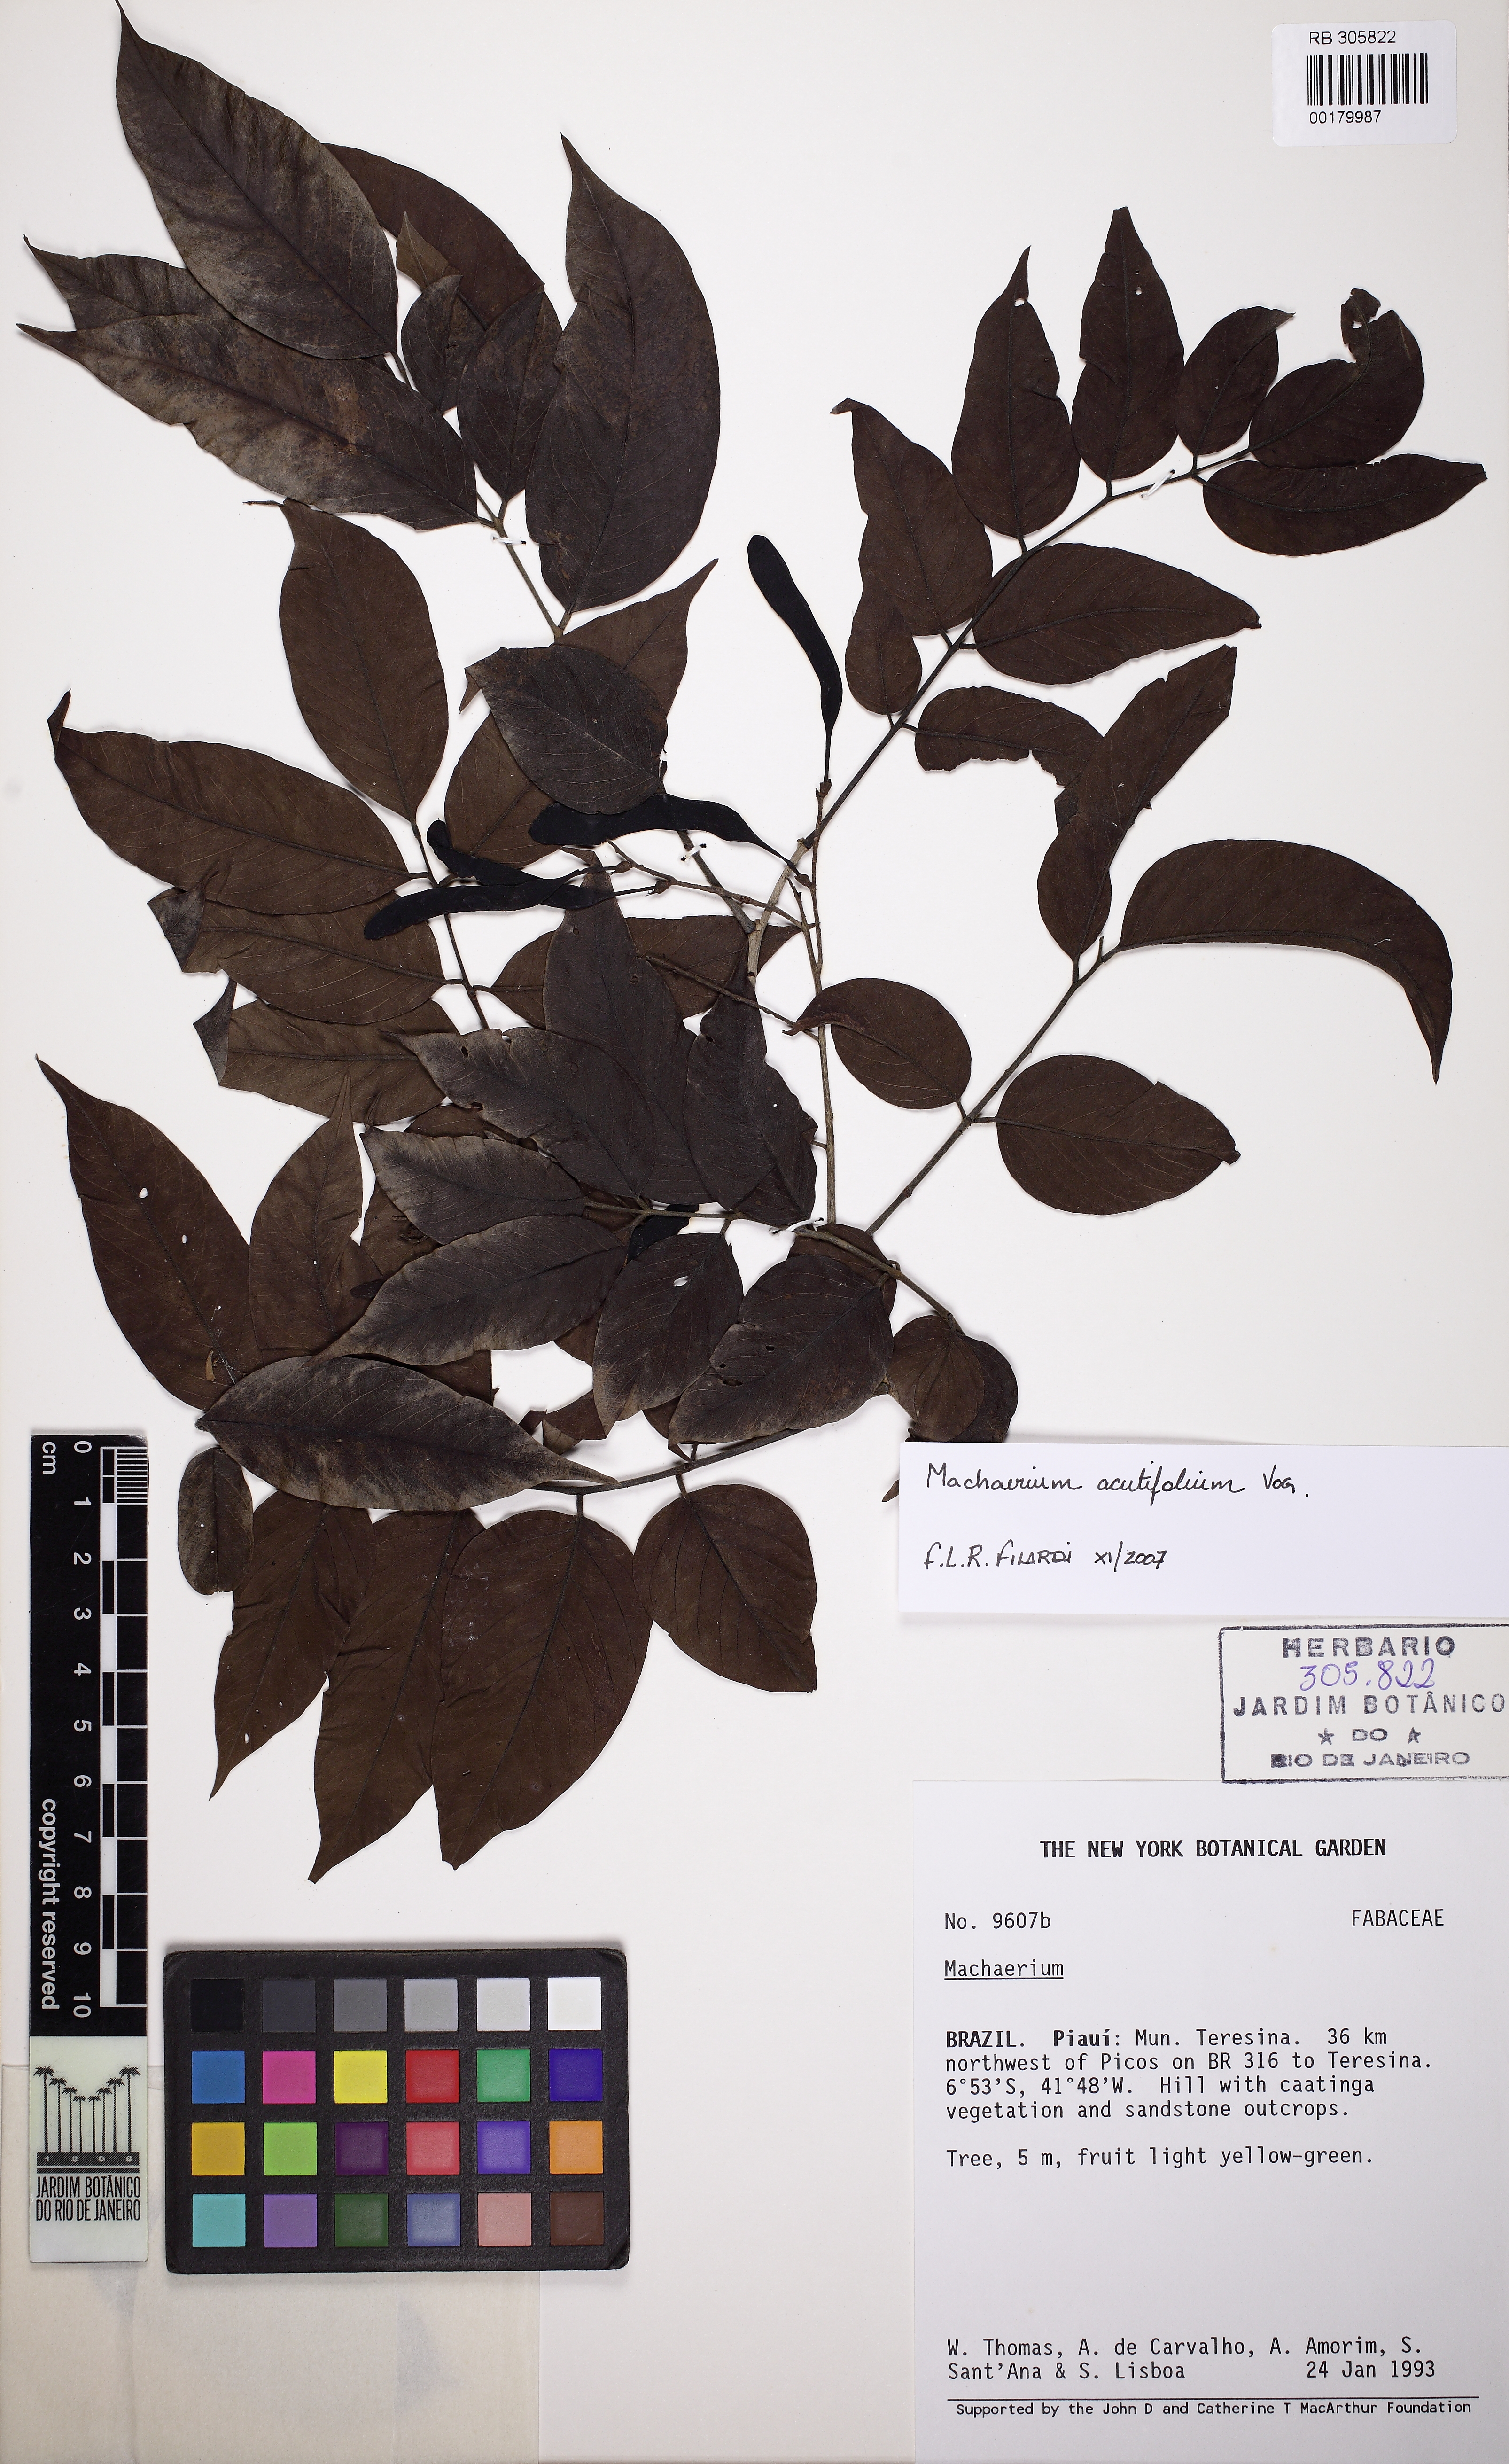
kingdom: Plantae
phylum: Tracheophyta
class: Magnoliopsida
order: Fabales
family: Fabaceae
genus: Machaerium
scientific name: Machaerium acutifolium
